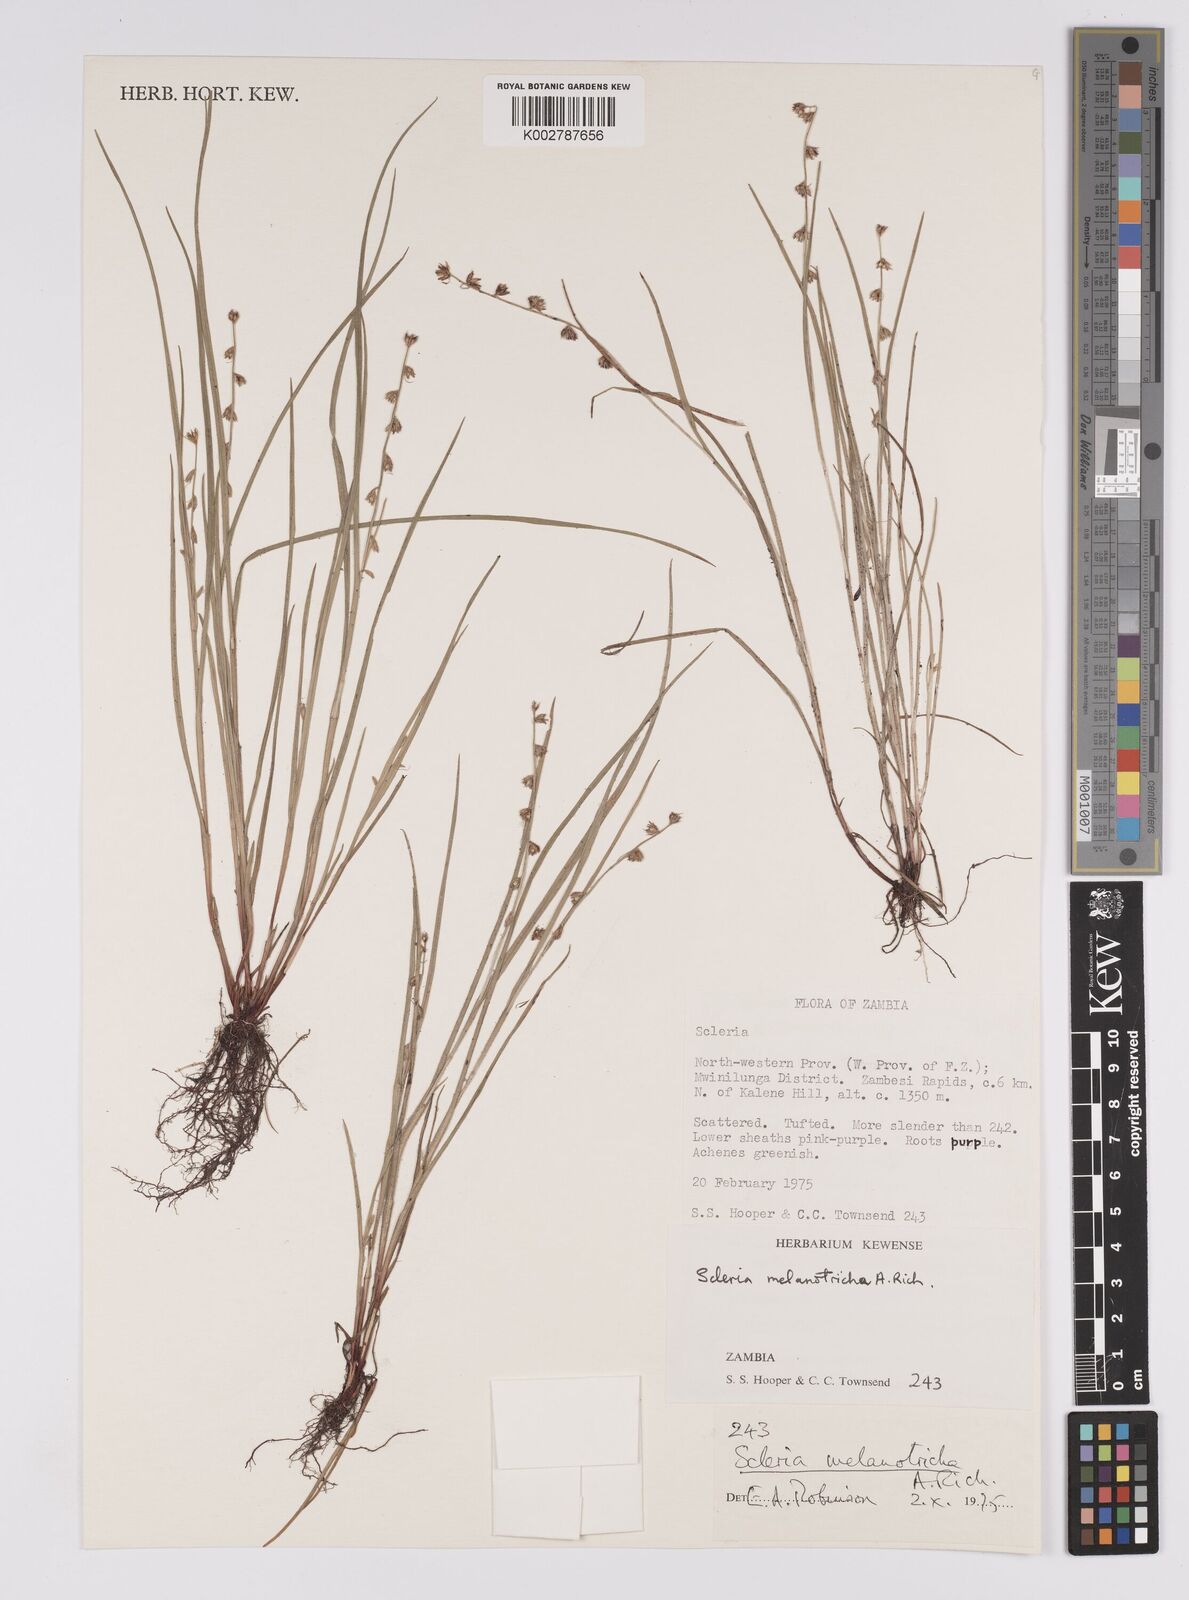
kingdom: Plantae
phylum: Tracheophyta
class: Liliopsida
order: Poales
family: Cyperaceae
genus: Scleria
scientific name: Scleria melanotricha
